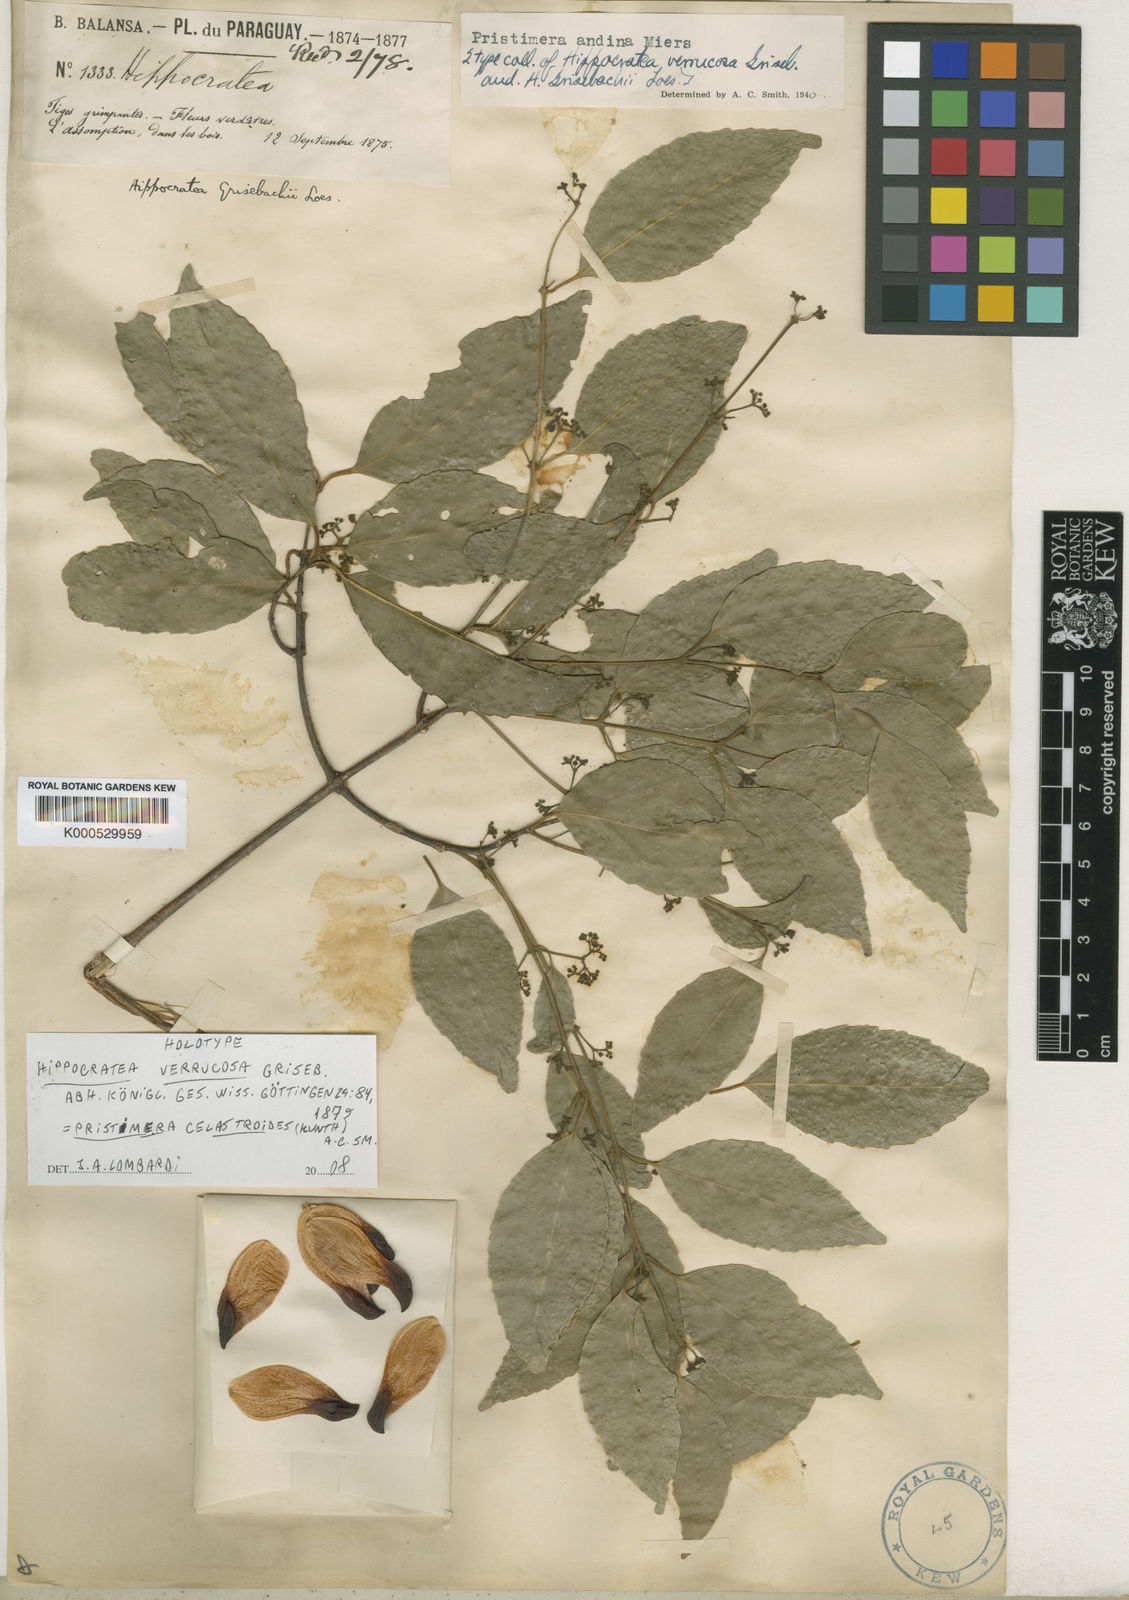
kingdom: Plantae
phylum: Tracheophyta
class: Magnoliopsida
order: Celastrales
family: Celastraceae
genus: Pristimera
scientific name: Pristimera celastroides
